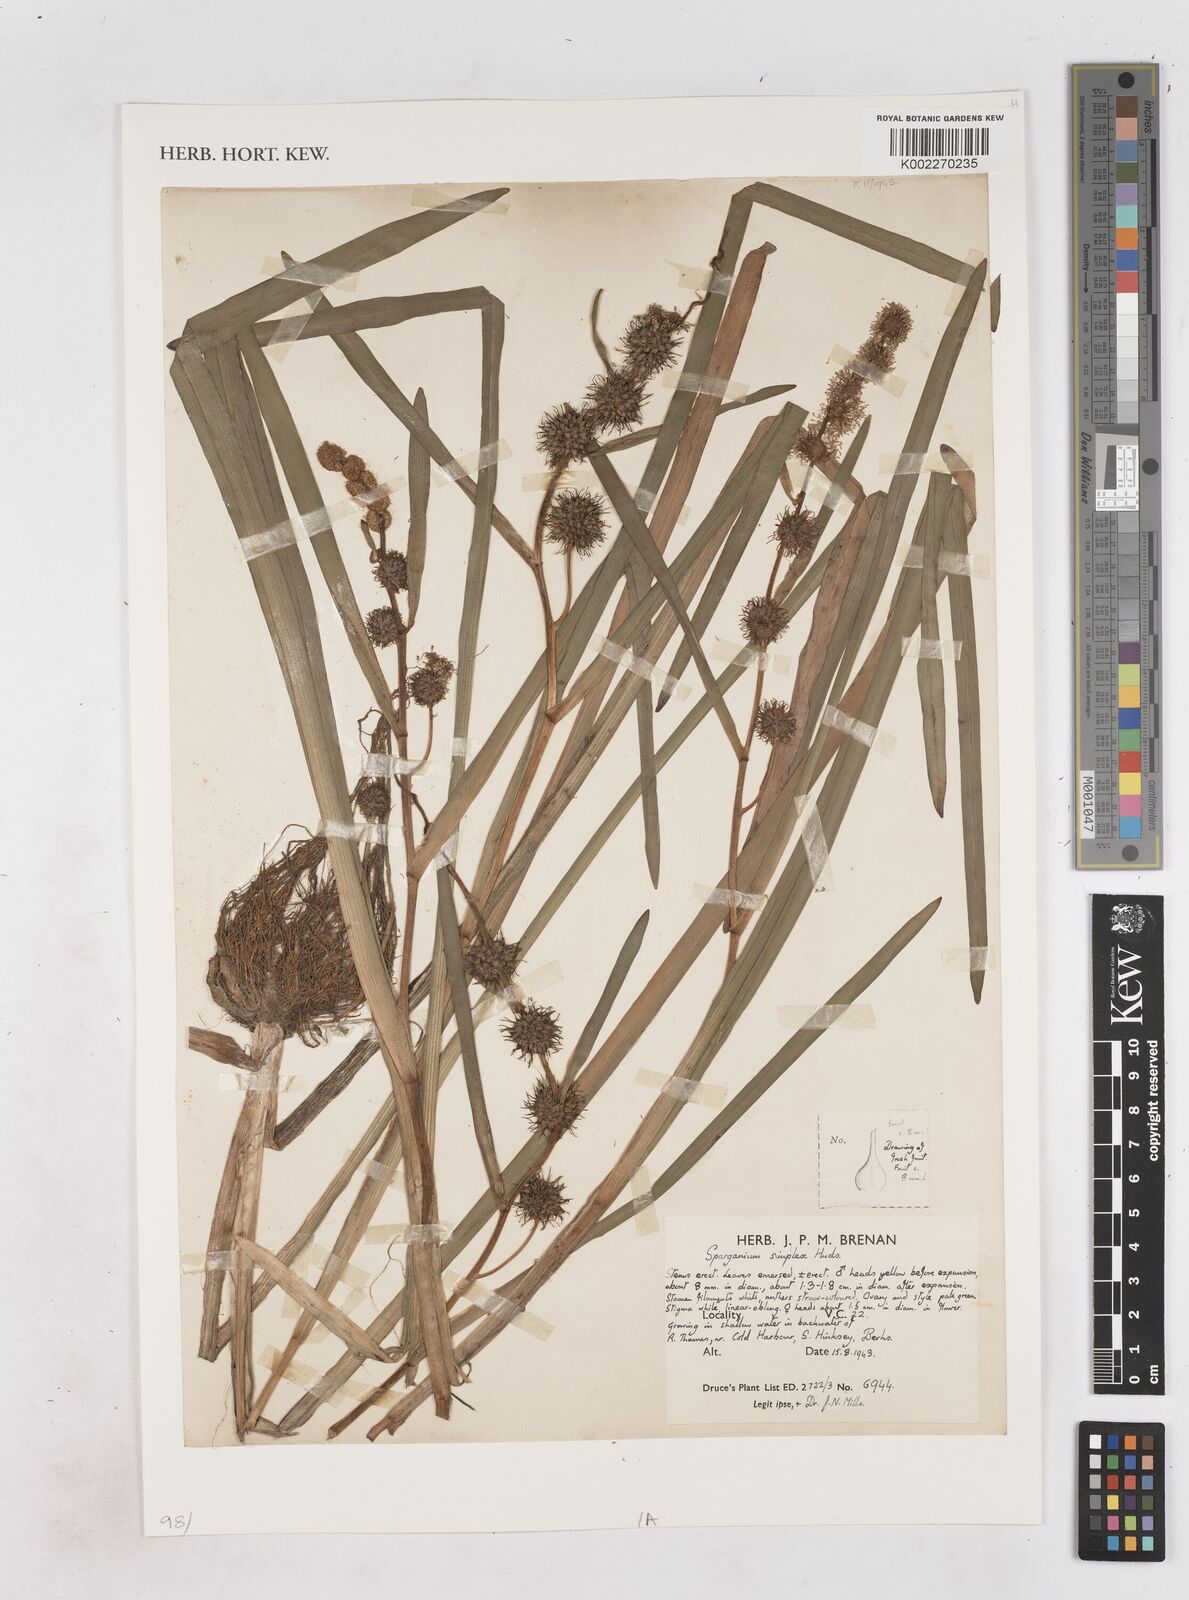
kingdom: Plantae
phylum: Tracheophyta
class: Liliopsida
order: Poales
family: Typhaceae
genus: Sparganium
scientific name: Sparganium emersum
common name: Unbranched bur-reed
